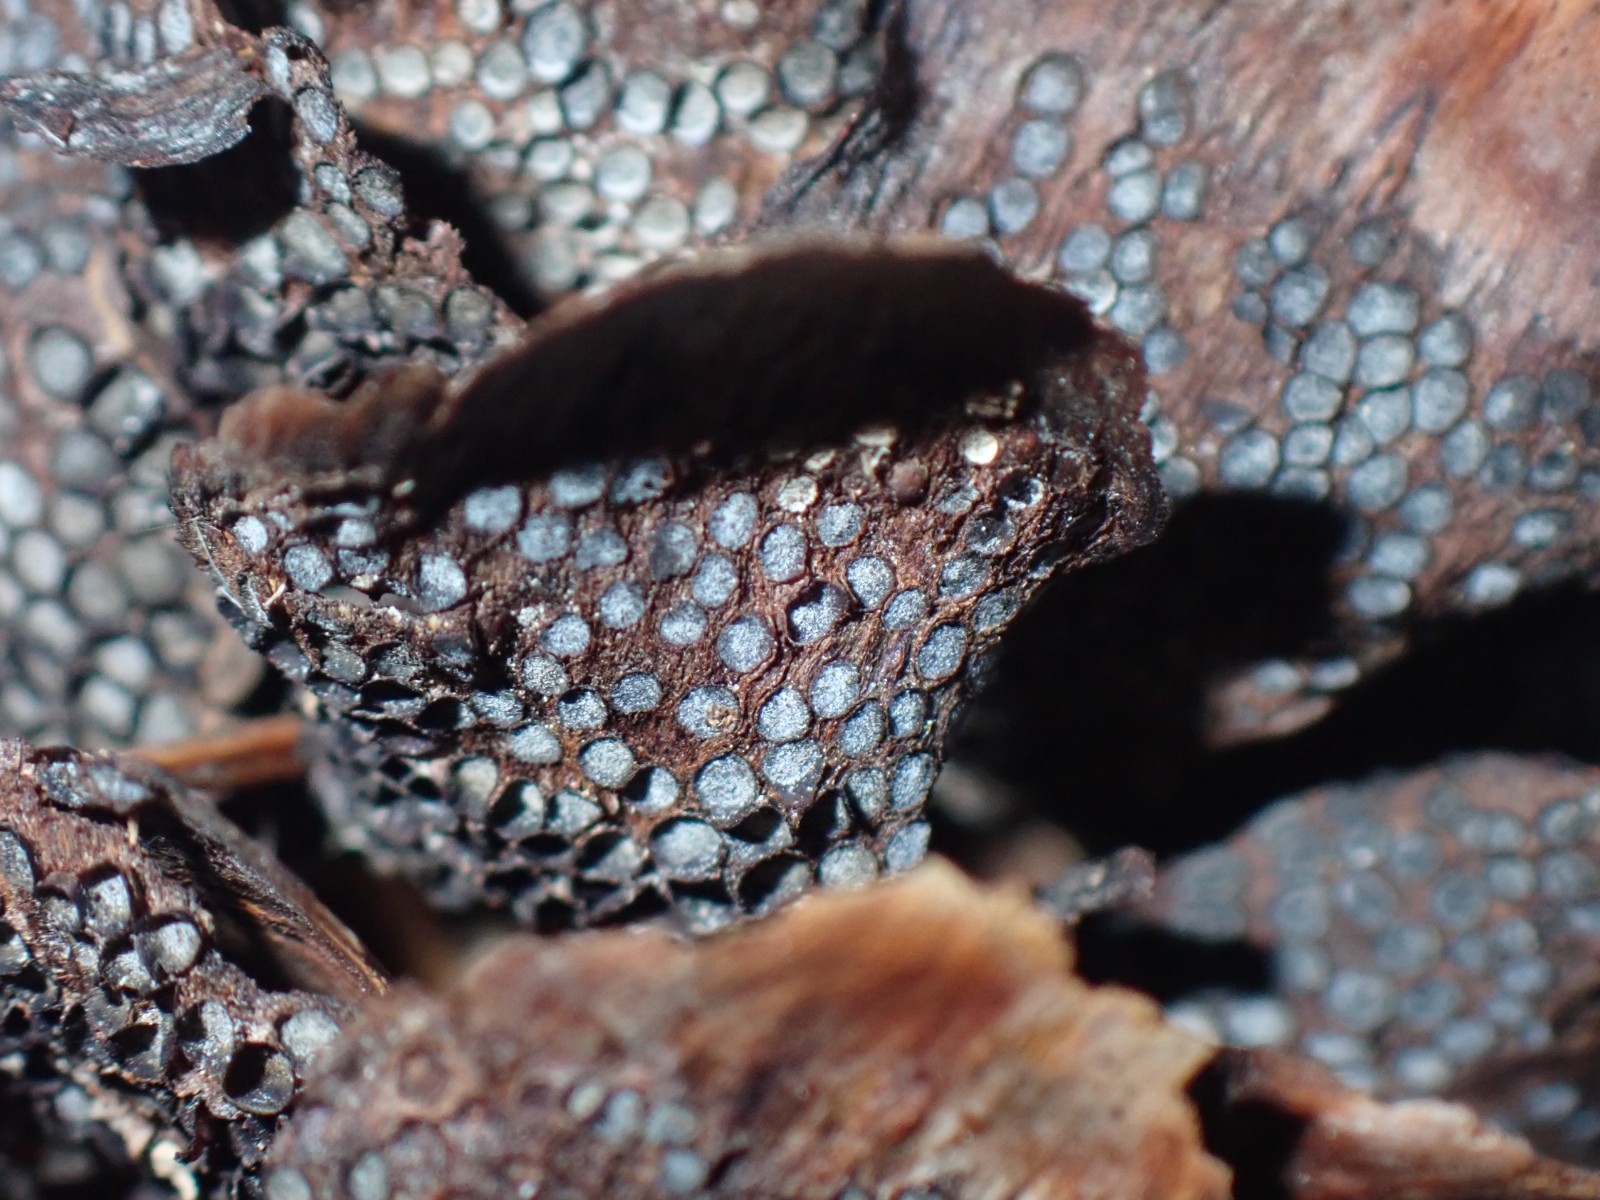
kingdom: Fungi
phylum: Basidiomycota
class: Pucciniomycetes
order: Pucciniales
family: Pucciniastraceae
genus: Thekopsora
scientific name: Thekopsora areolata
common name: grankogle-nålerust
